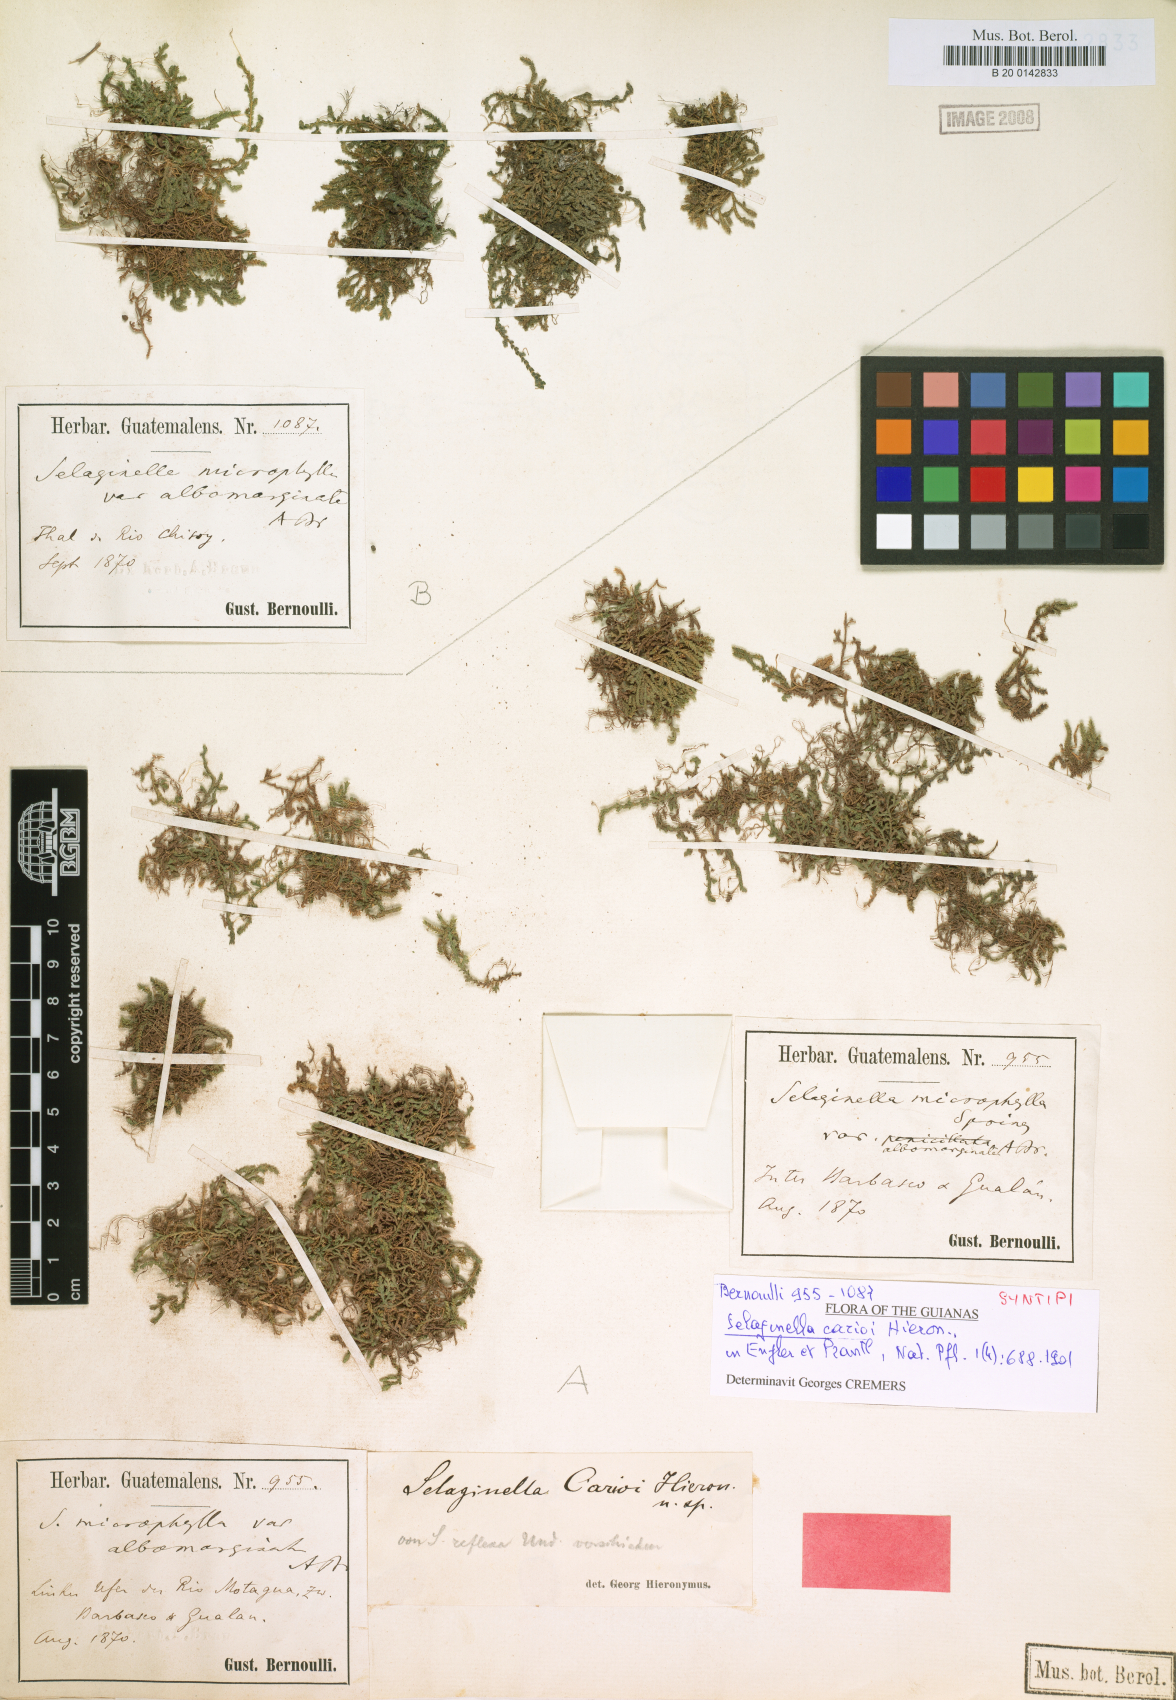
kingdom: Plantae
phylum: Tracheophyta
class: Lycopodiopsida
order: Selaginellales
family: Selaginellaceae
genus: Selaginella
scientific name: Selaginella carioi
